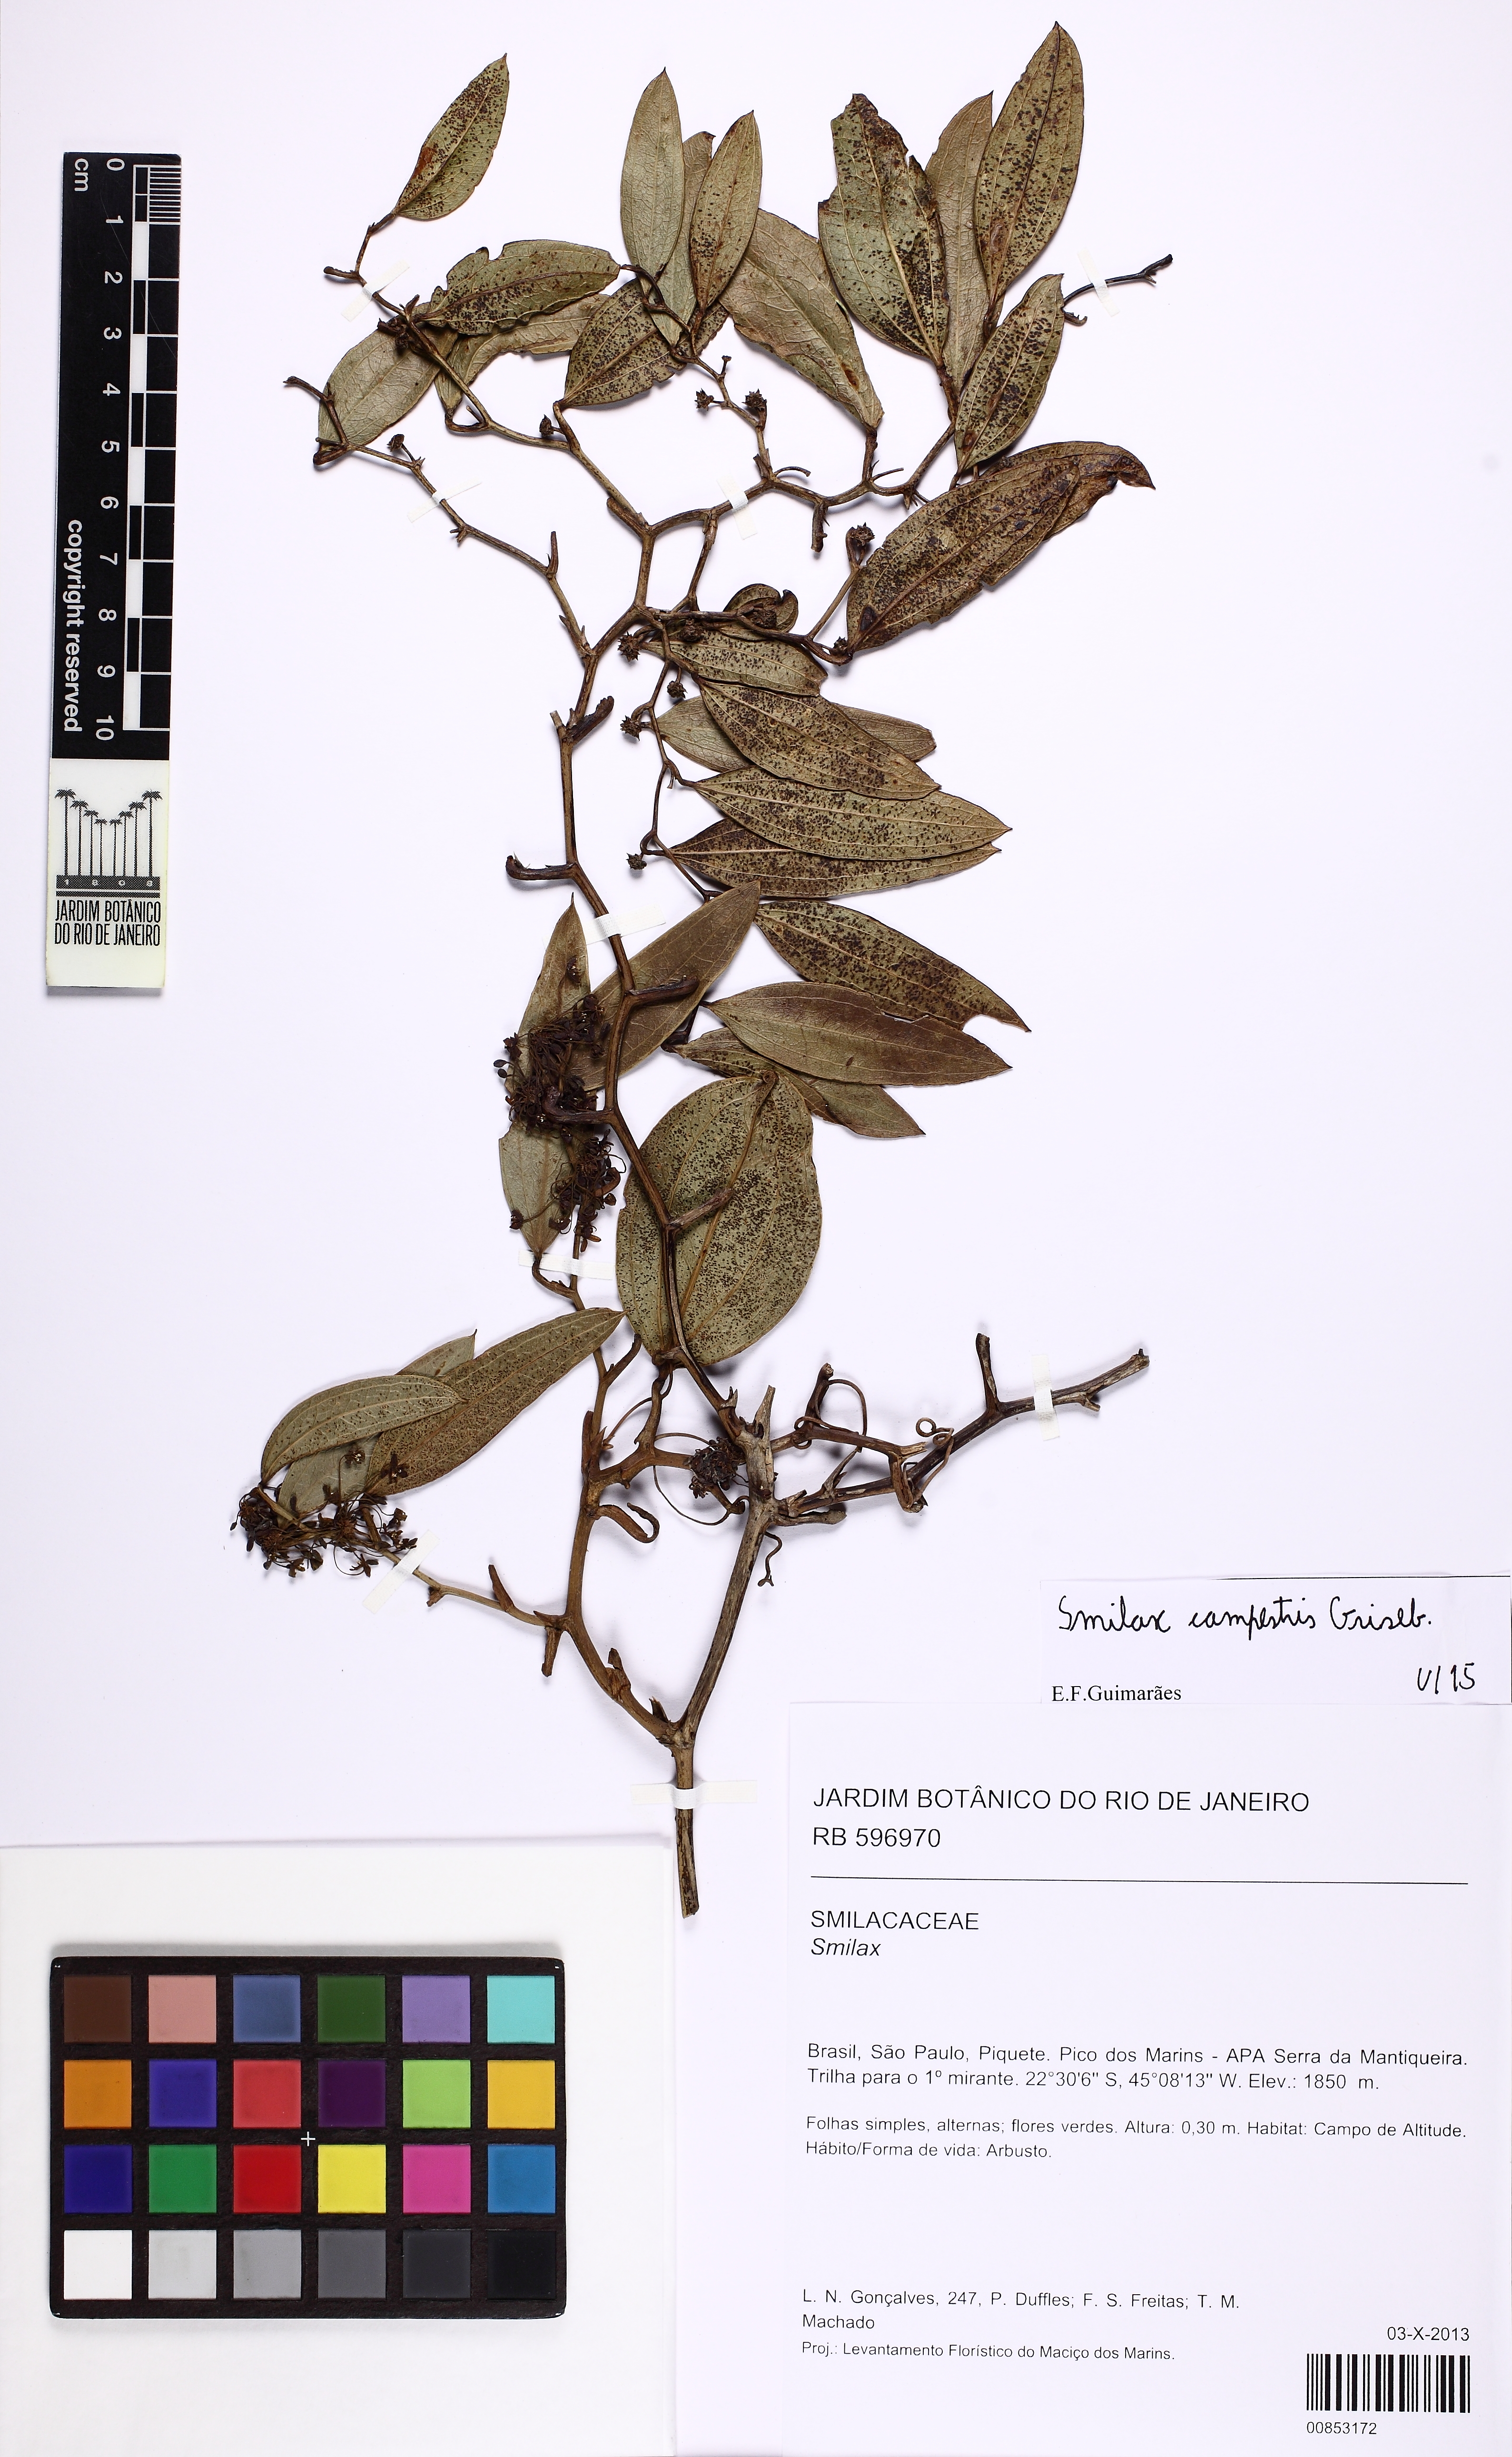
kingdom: Plantae
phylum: Tracheophyta
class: Liliopsida
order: Liliales
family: Smilacaceae
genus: Smilax
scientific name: Smilax campestris
